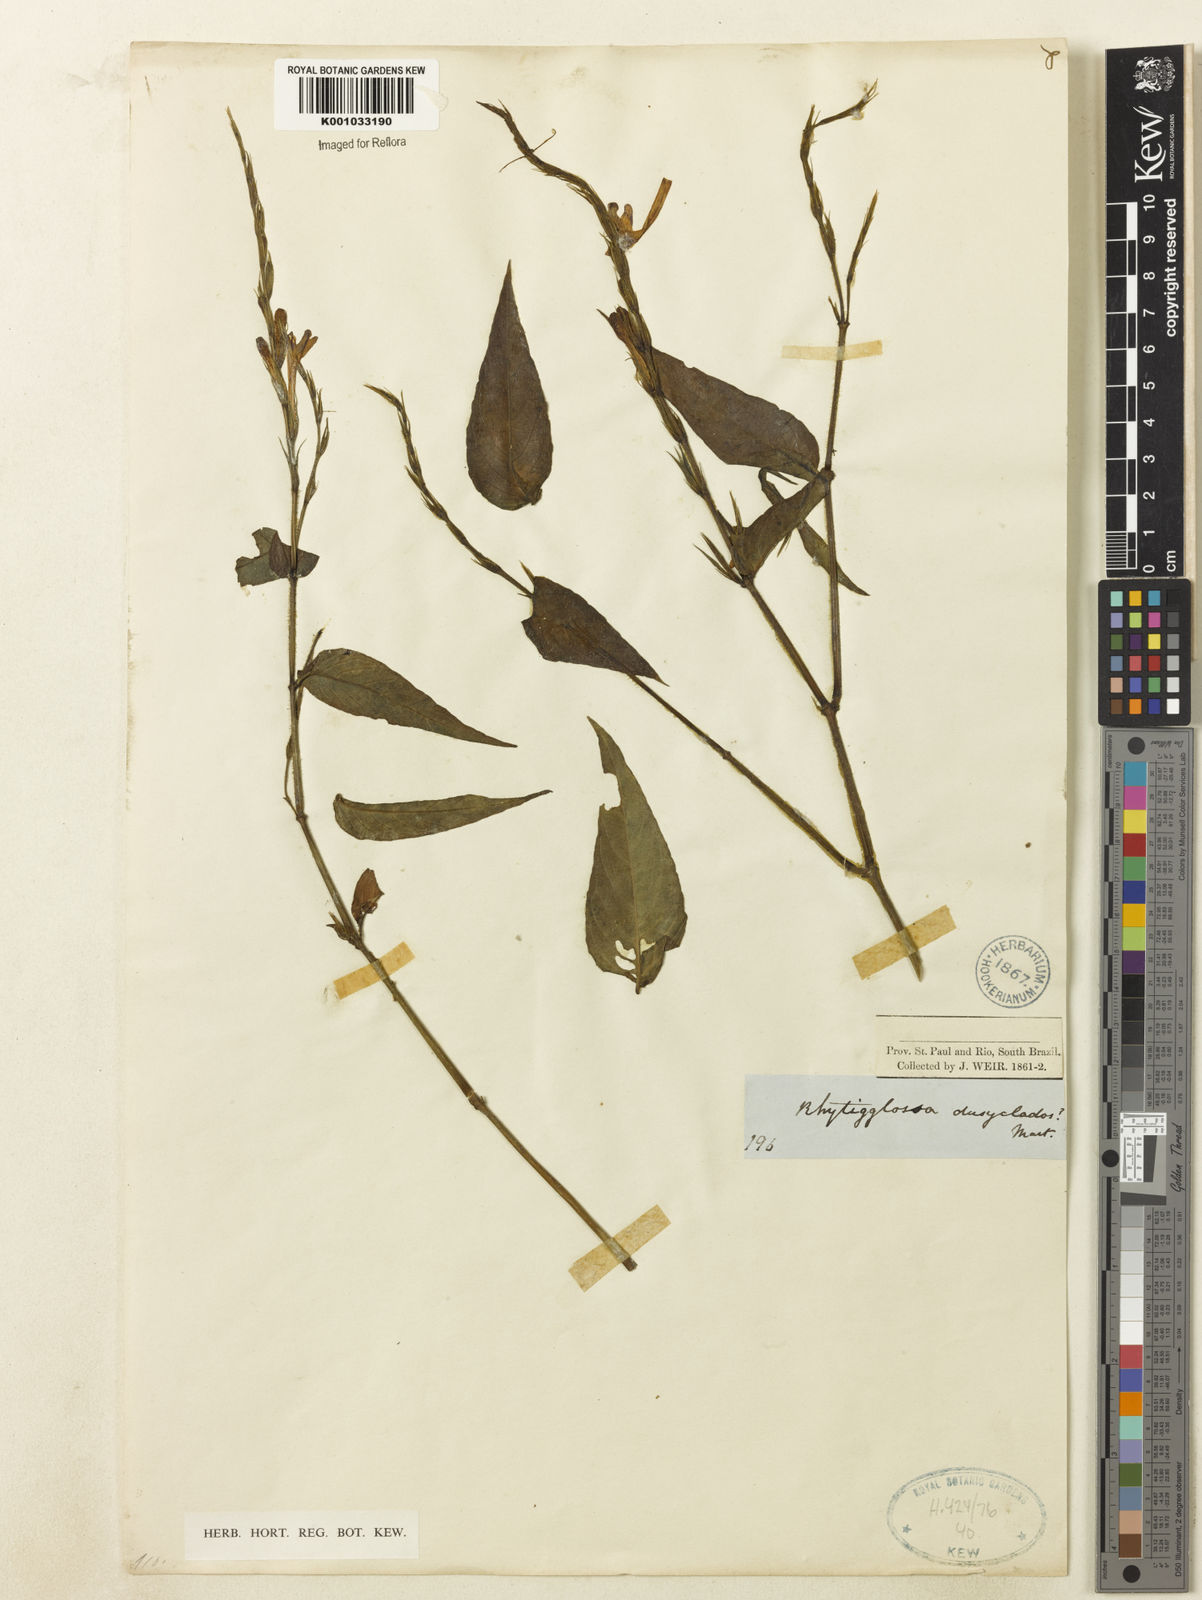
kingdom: Plantae
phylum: Tracheophyta
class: Magnoliopsida
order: Lamiales
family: Acanthaceae
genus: Dianthera
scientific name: Dianthera dasyclados
